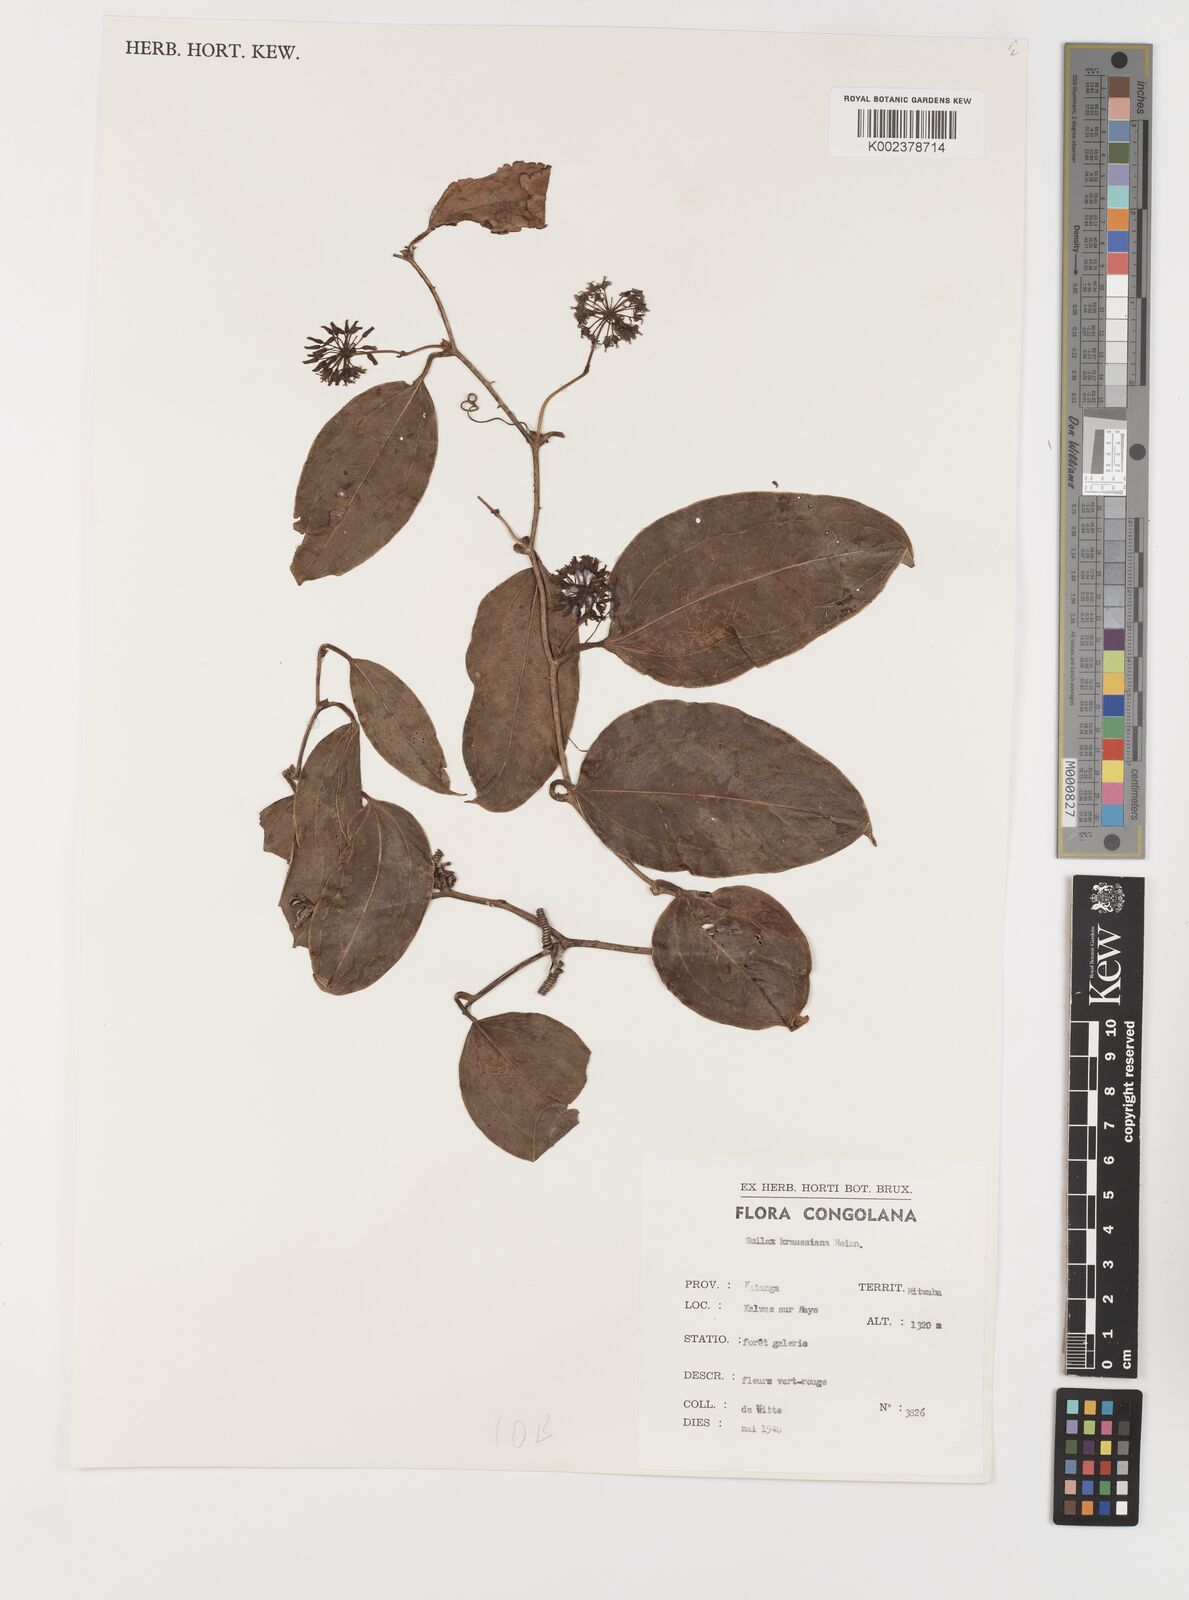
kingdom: Plantae
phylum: Tracheophyta
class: Liliopsida
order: Liliales
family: Smilacaceae
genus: Smilax
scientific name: Smilax anceps
